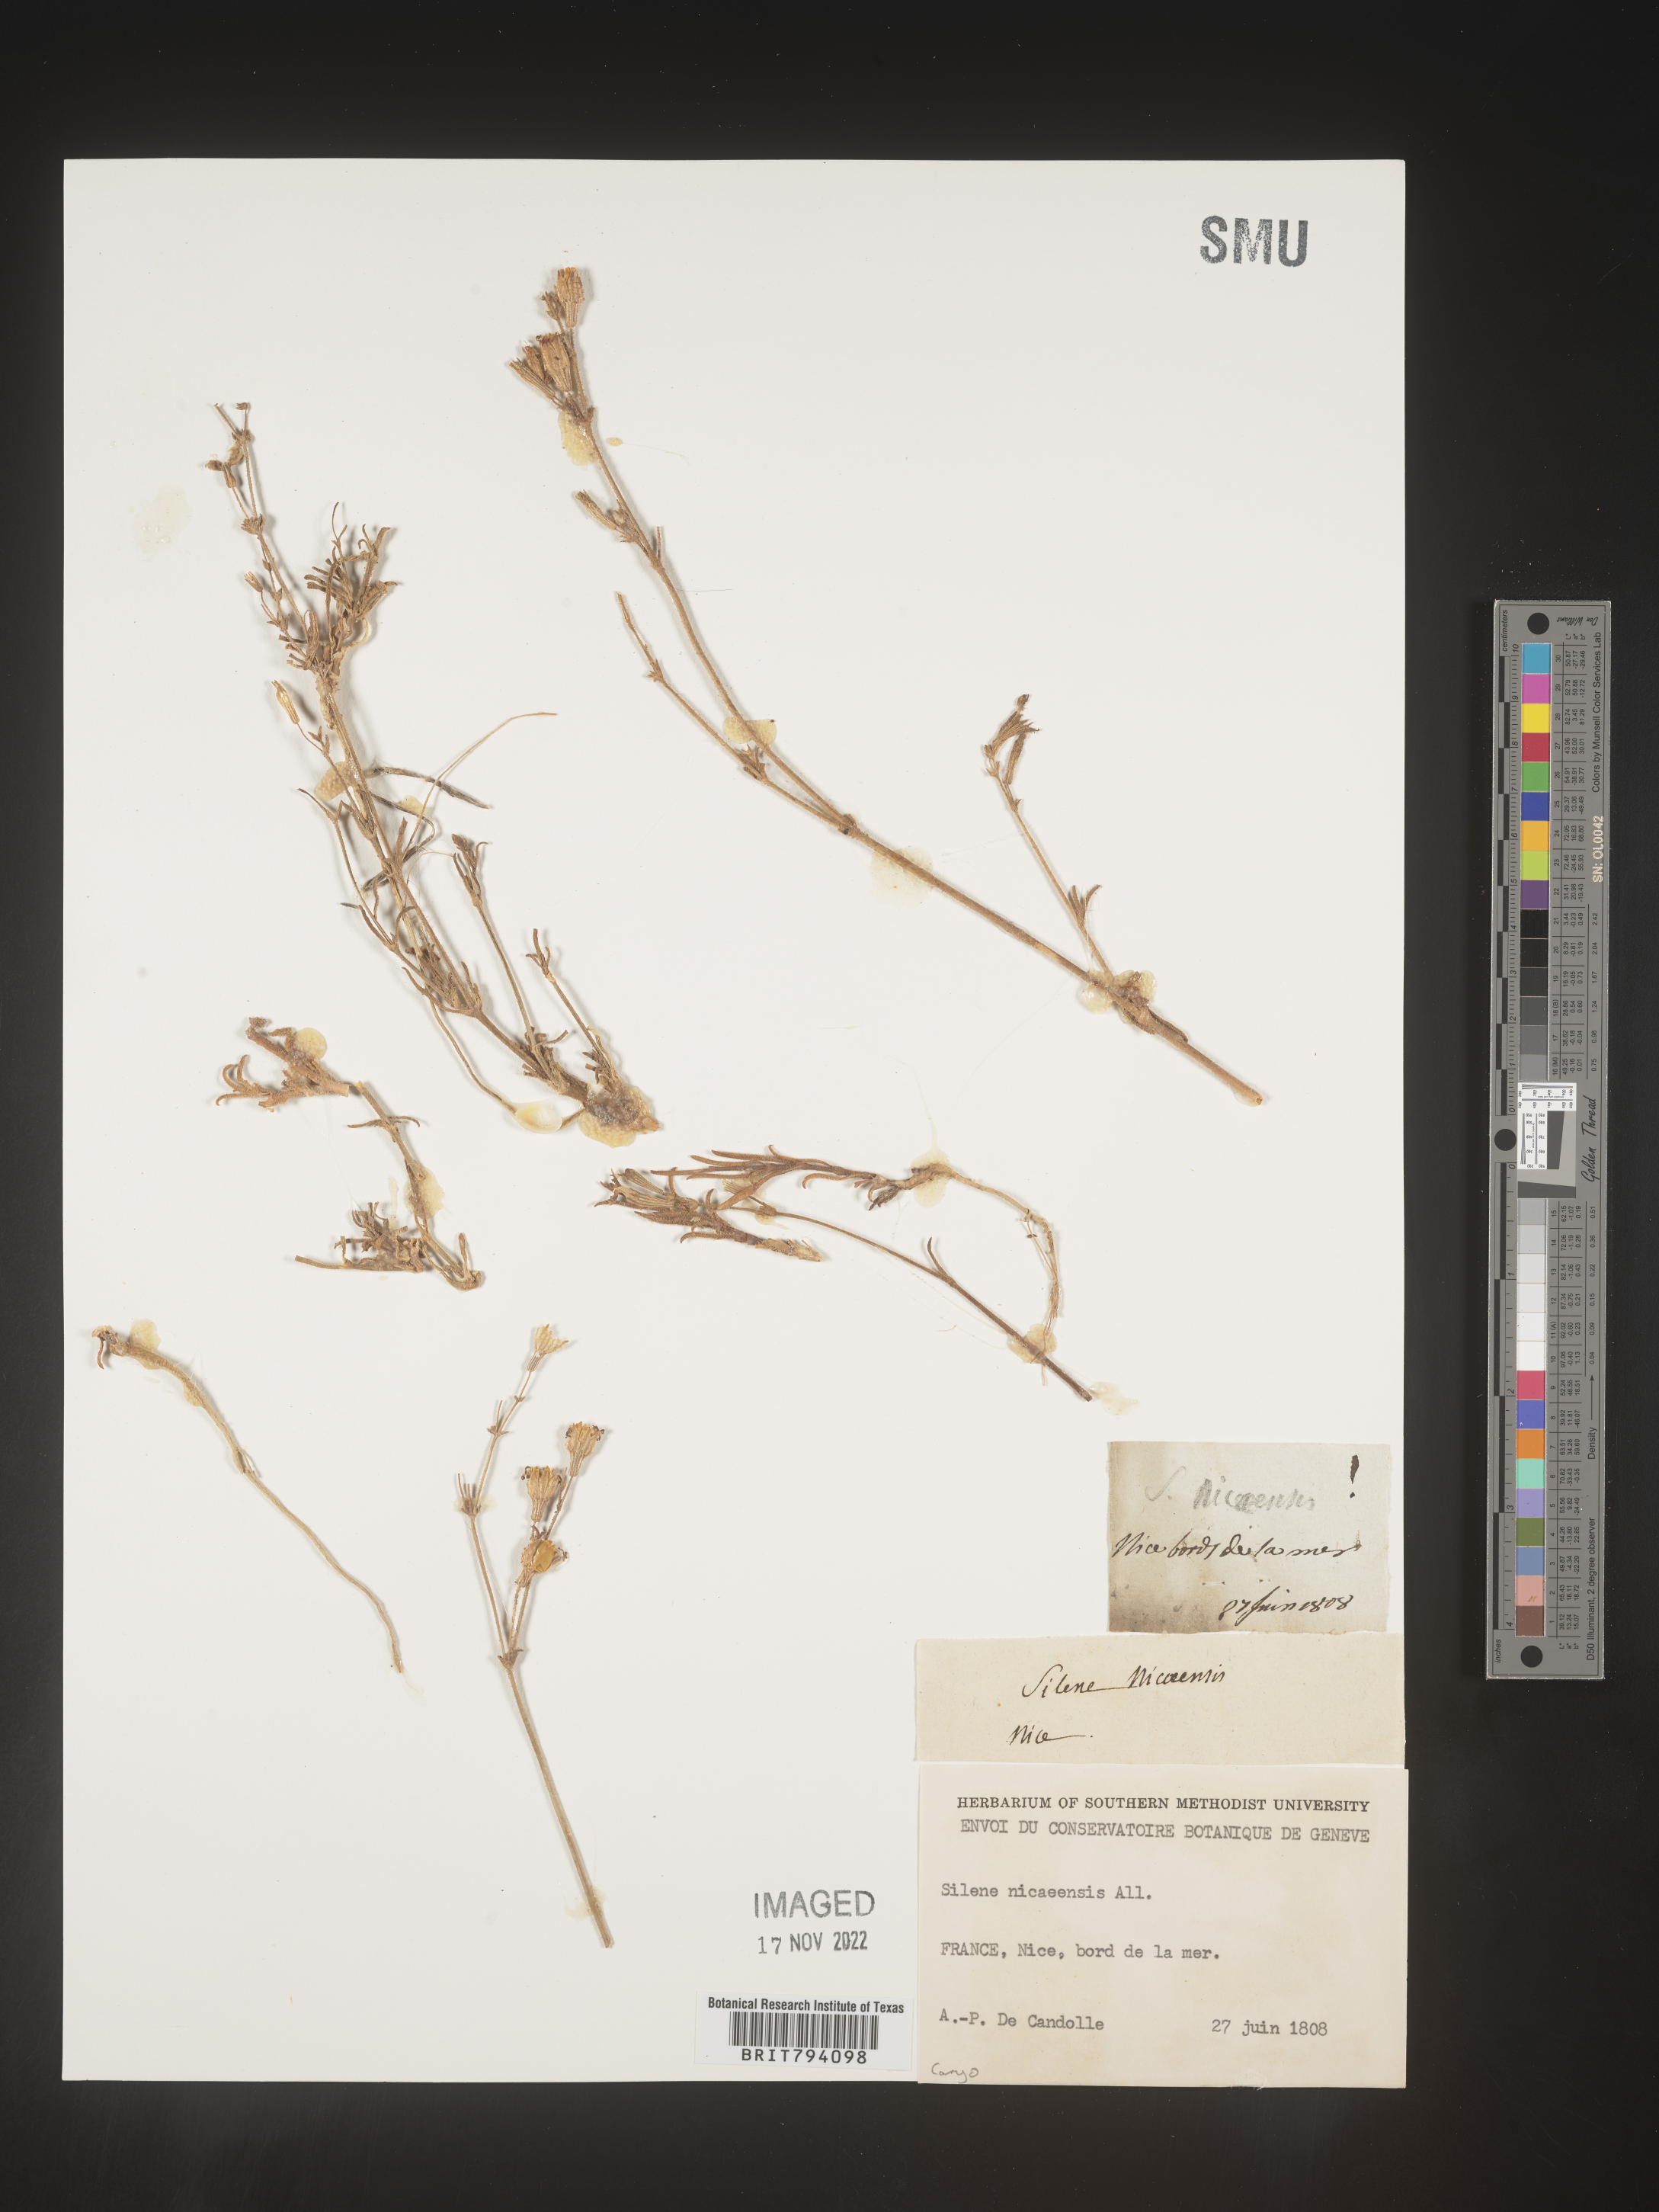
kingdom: Plantae
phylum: Tracheophyta
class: Magnoliopsida
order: Caryophyllales
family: Caryophyllaceae
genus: Silene
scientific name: Silene nicaeensis
